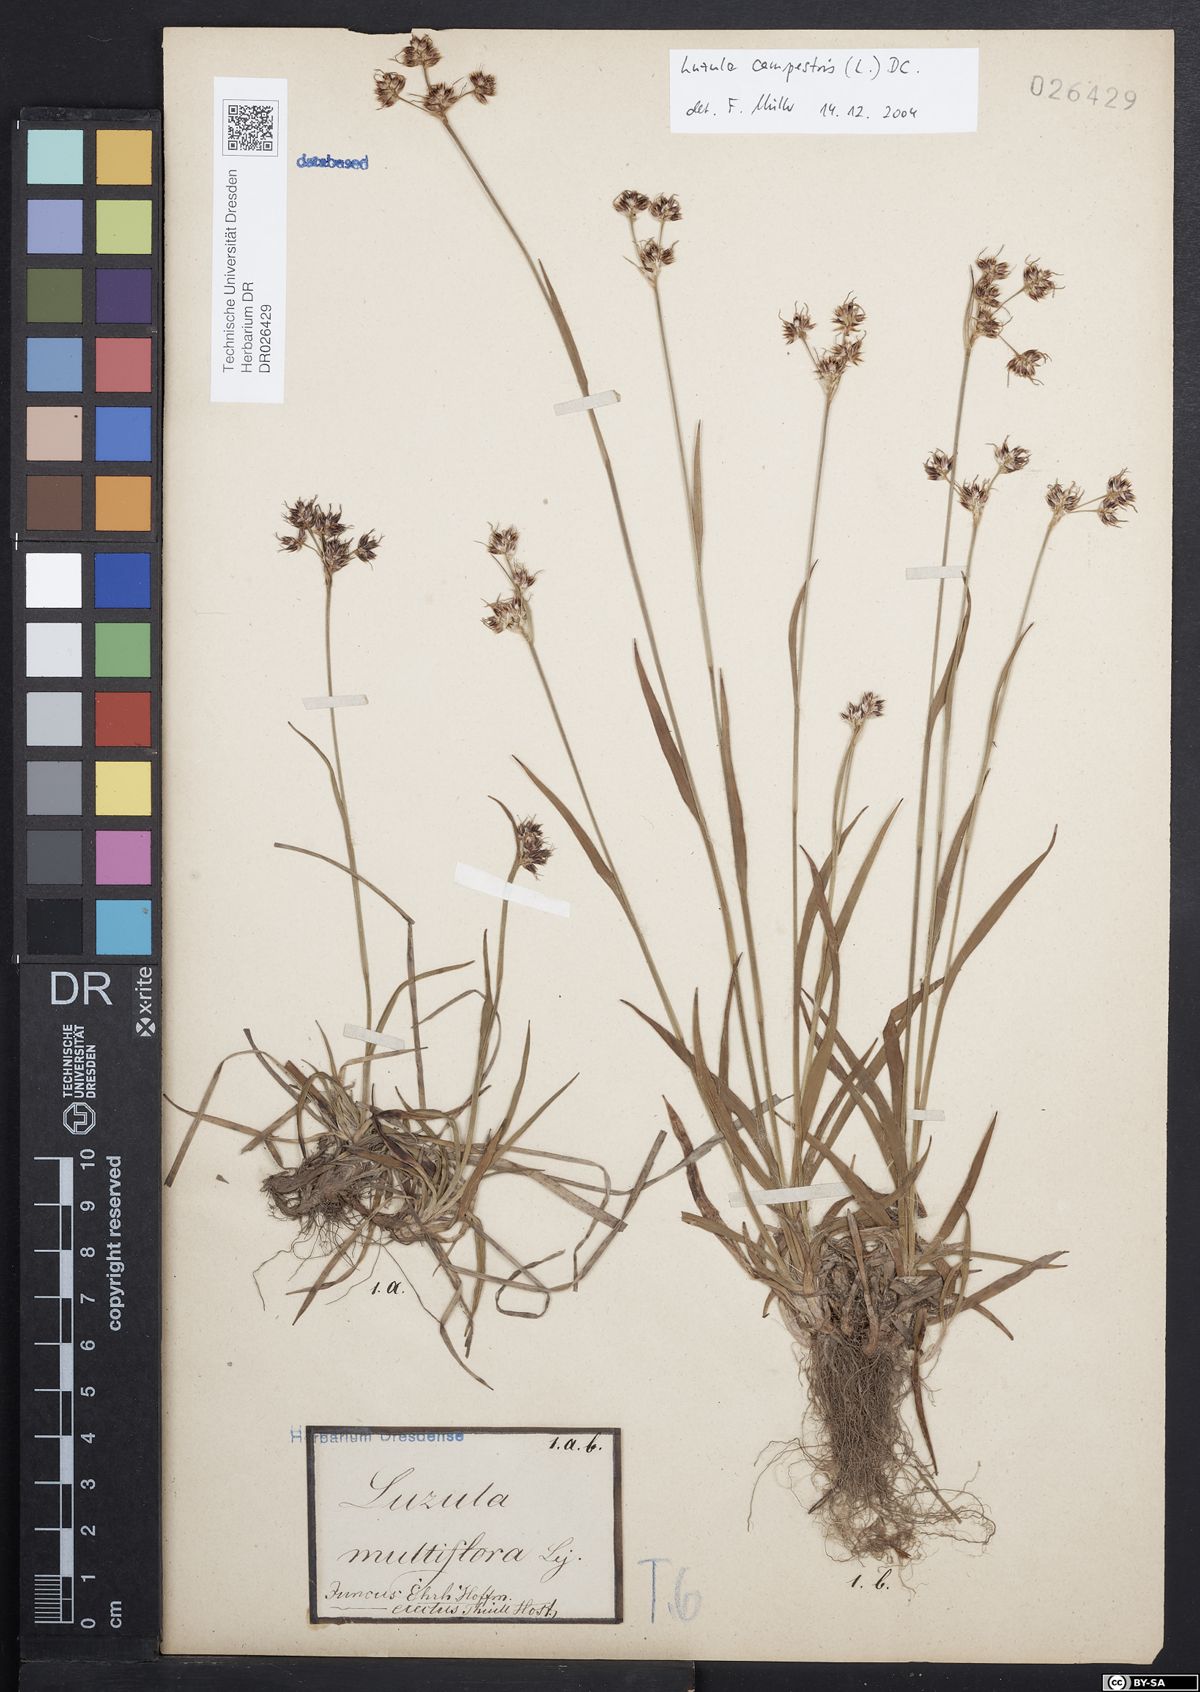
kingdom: Plantae
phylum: Tracheophyta
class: Liliopsida
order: Poales
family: Juncaceae
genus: Luzula
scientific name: Luzula campestris
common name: Field wood-rush
